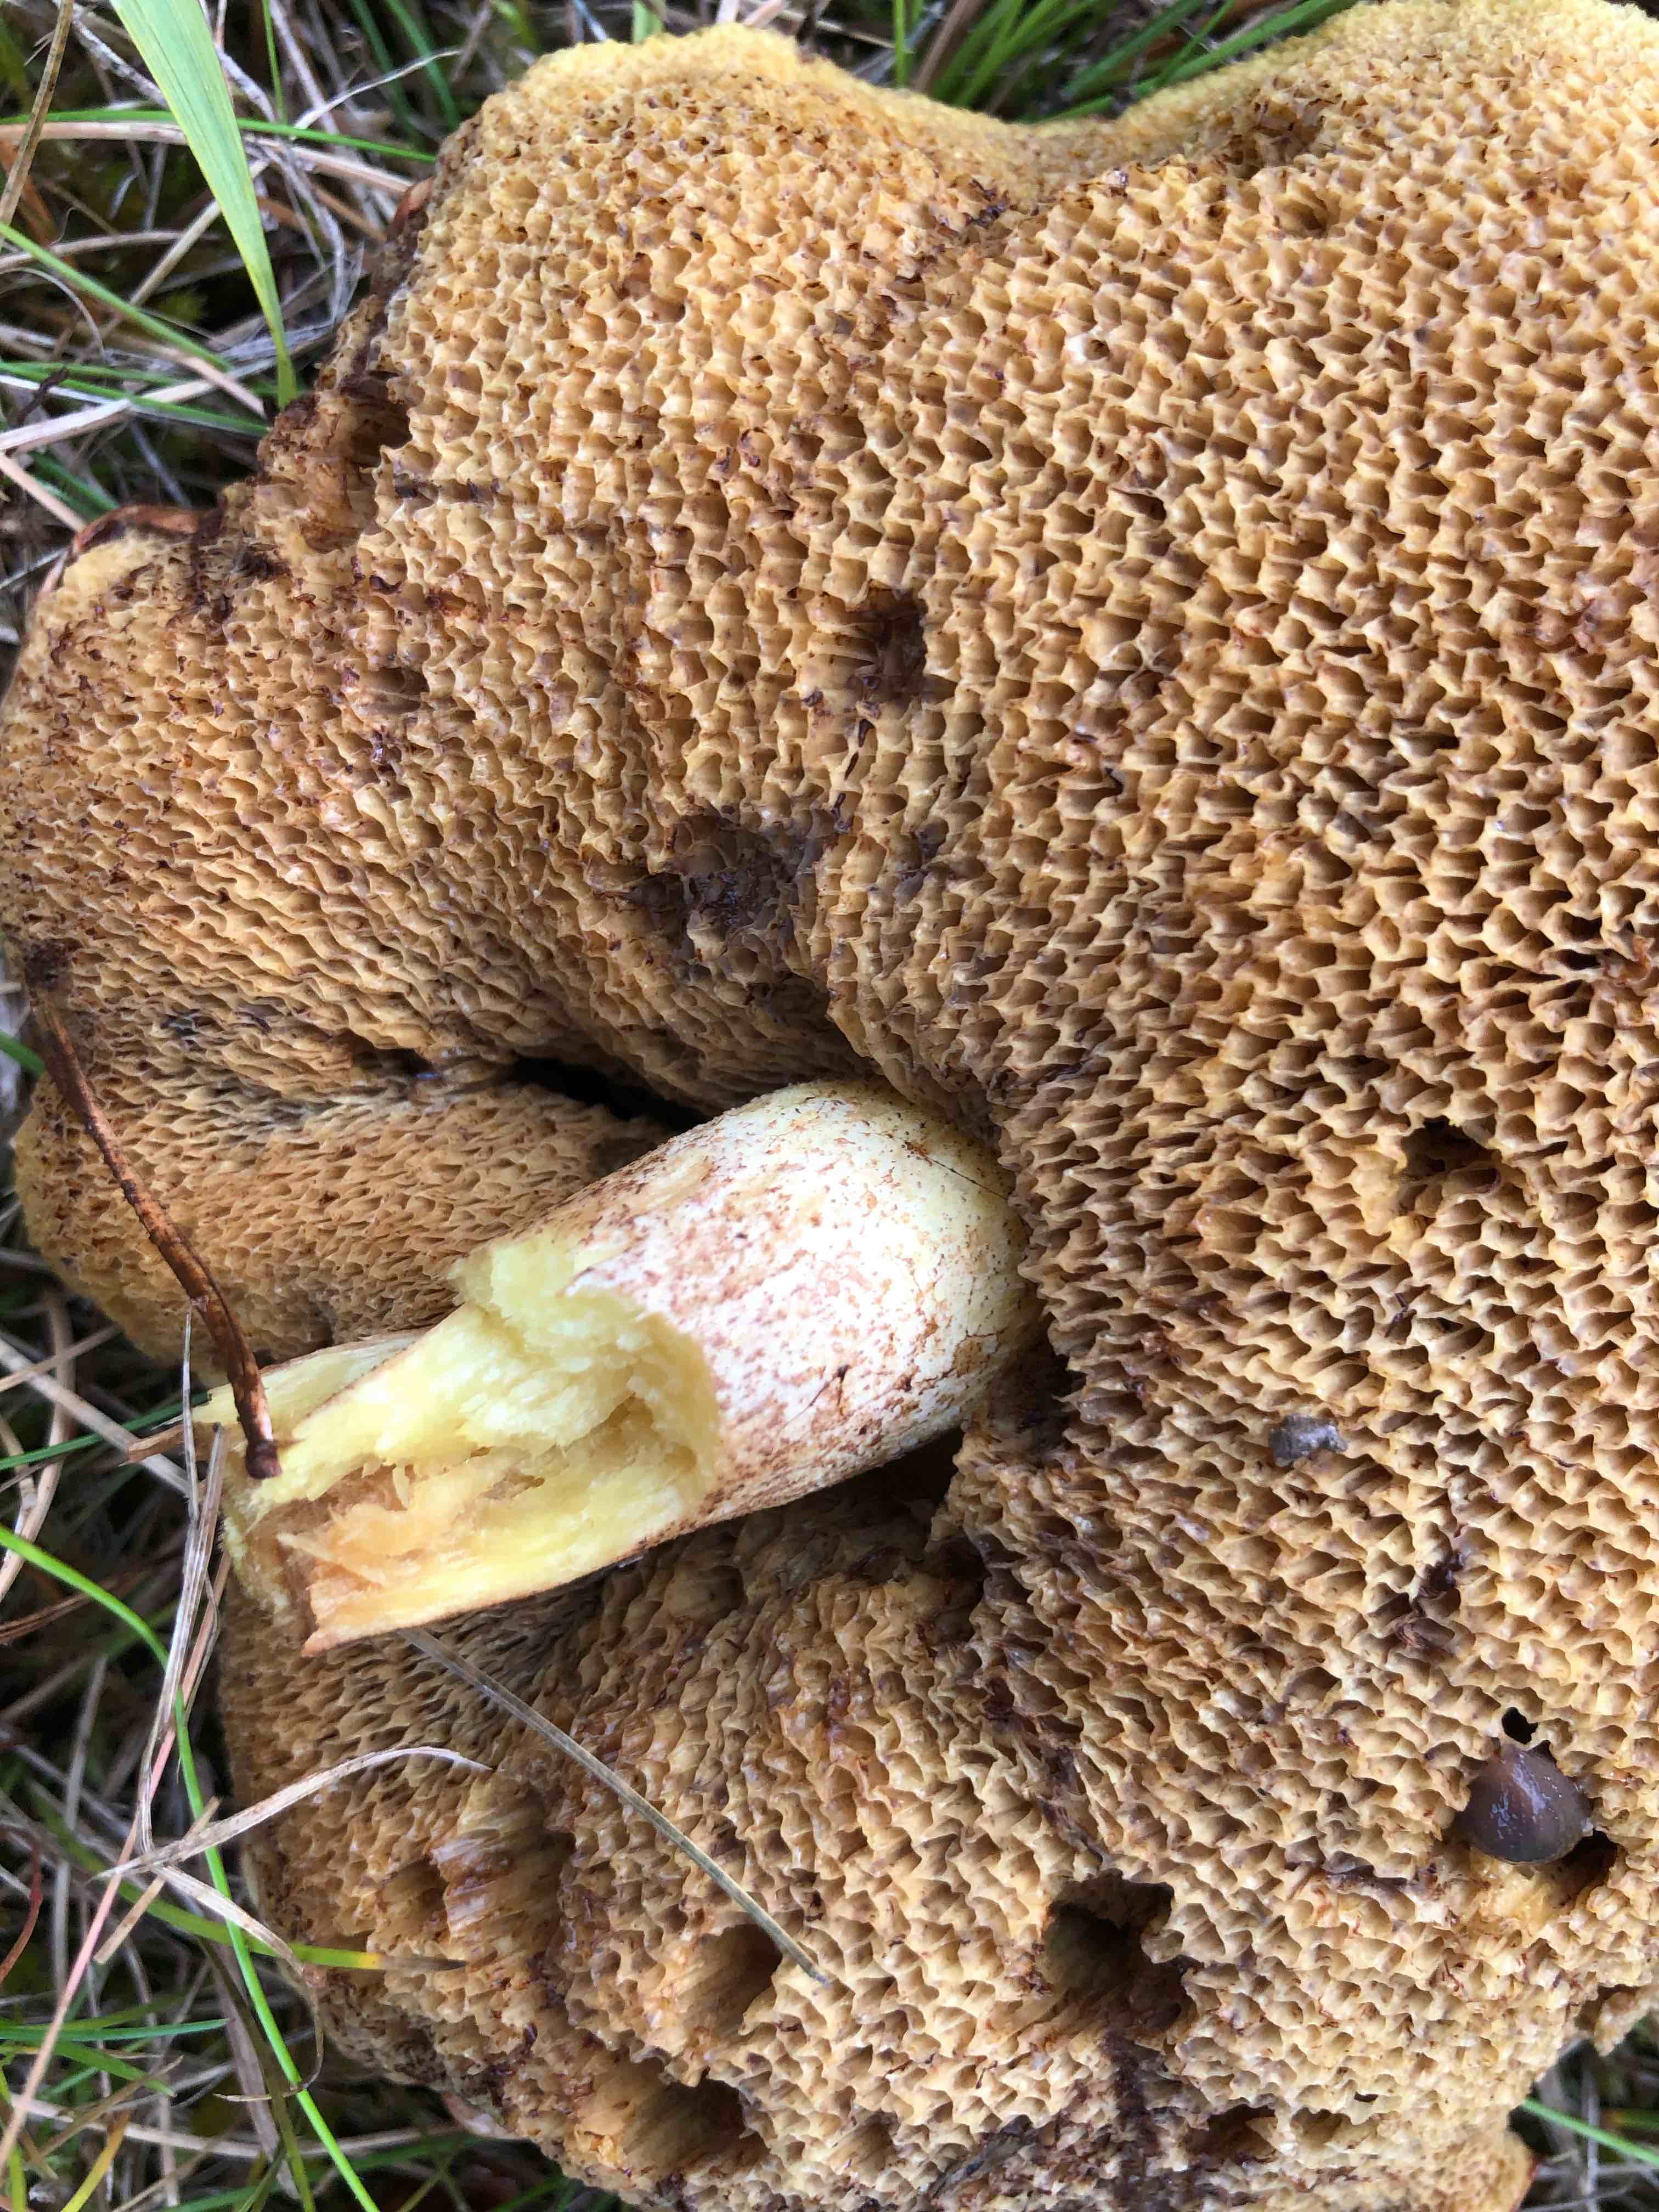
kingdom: Fungi
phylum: Basidiomycota
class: Agaricomycetes
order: Boletales
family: Suillaceae
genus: Suillus
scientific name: Suillus
